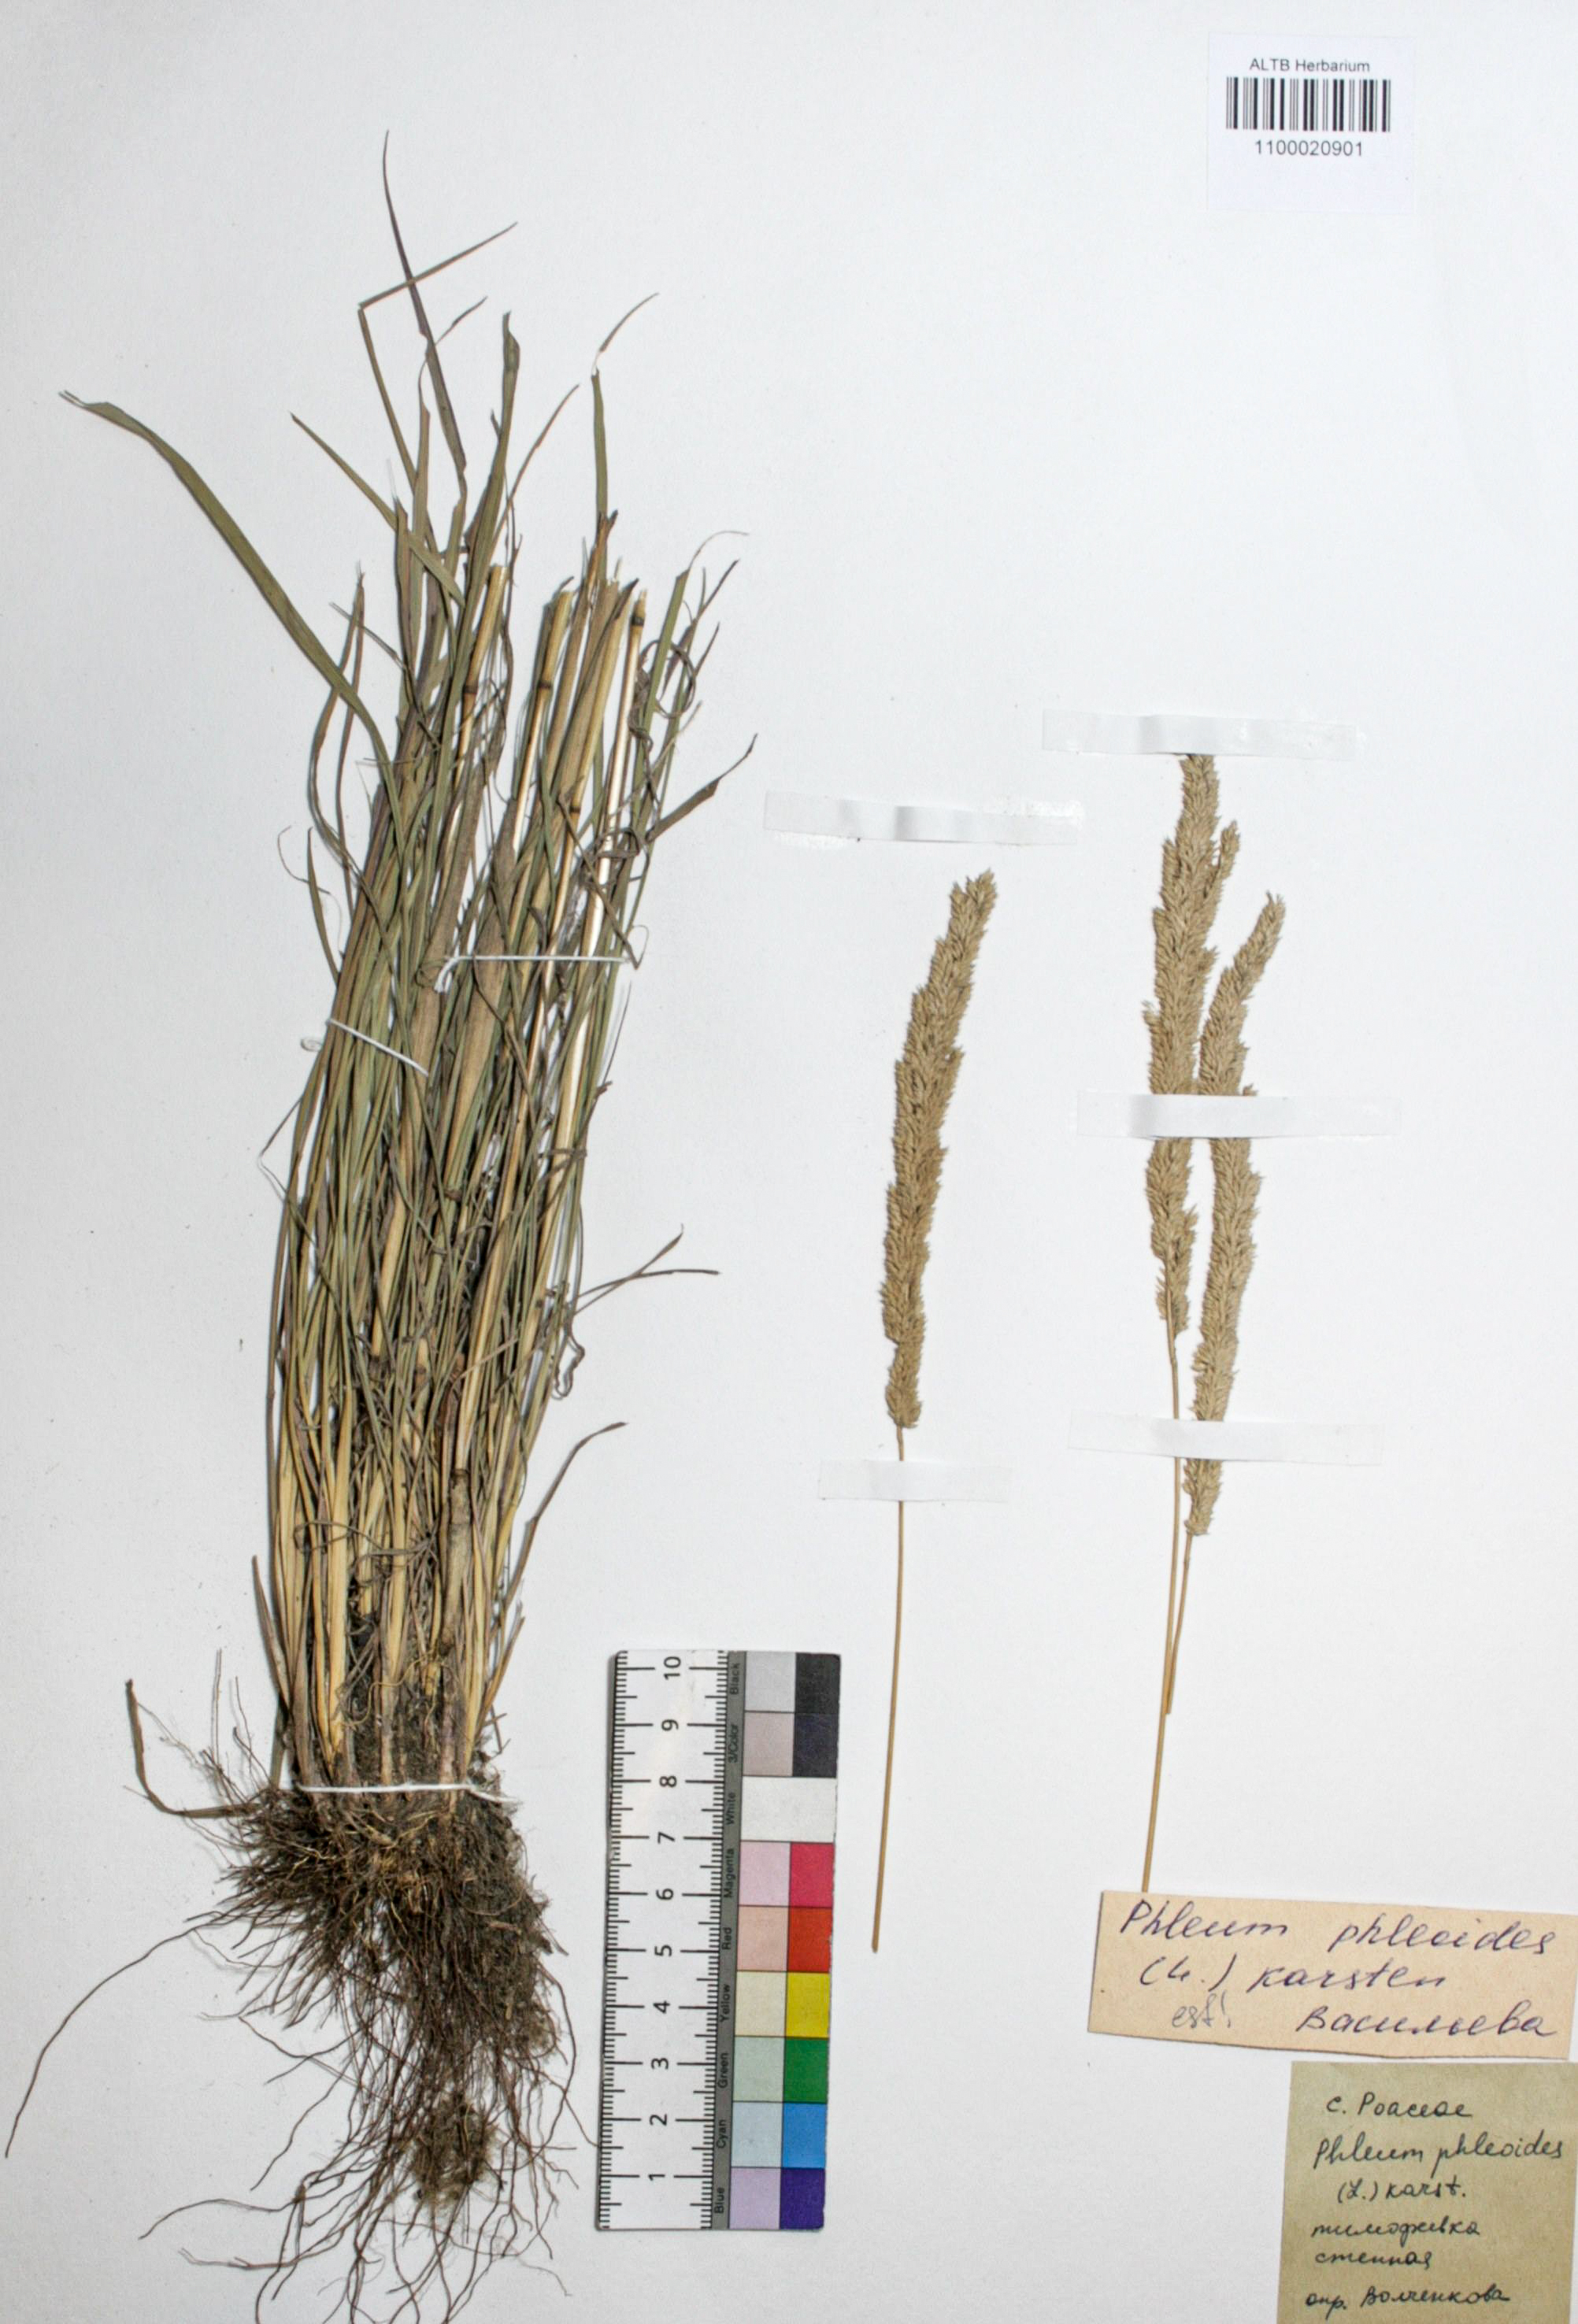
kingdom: Plantae
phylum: Tracheophyta
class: Liliopsida
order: Poales
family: Poaceae
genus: Phleum
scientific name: Phleum phleoides
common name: Purple-stem cat's-tail
